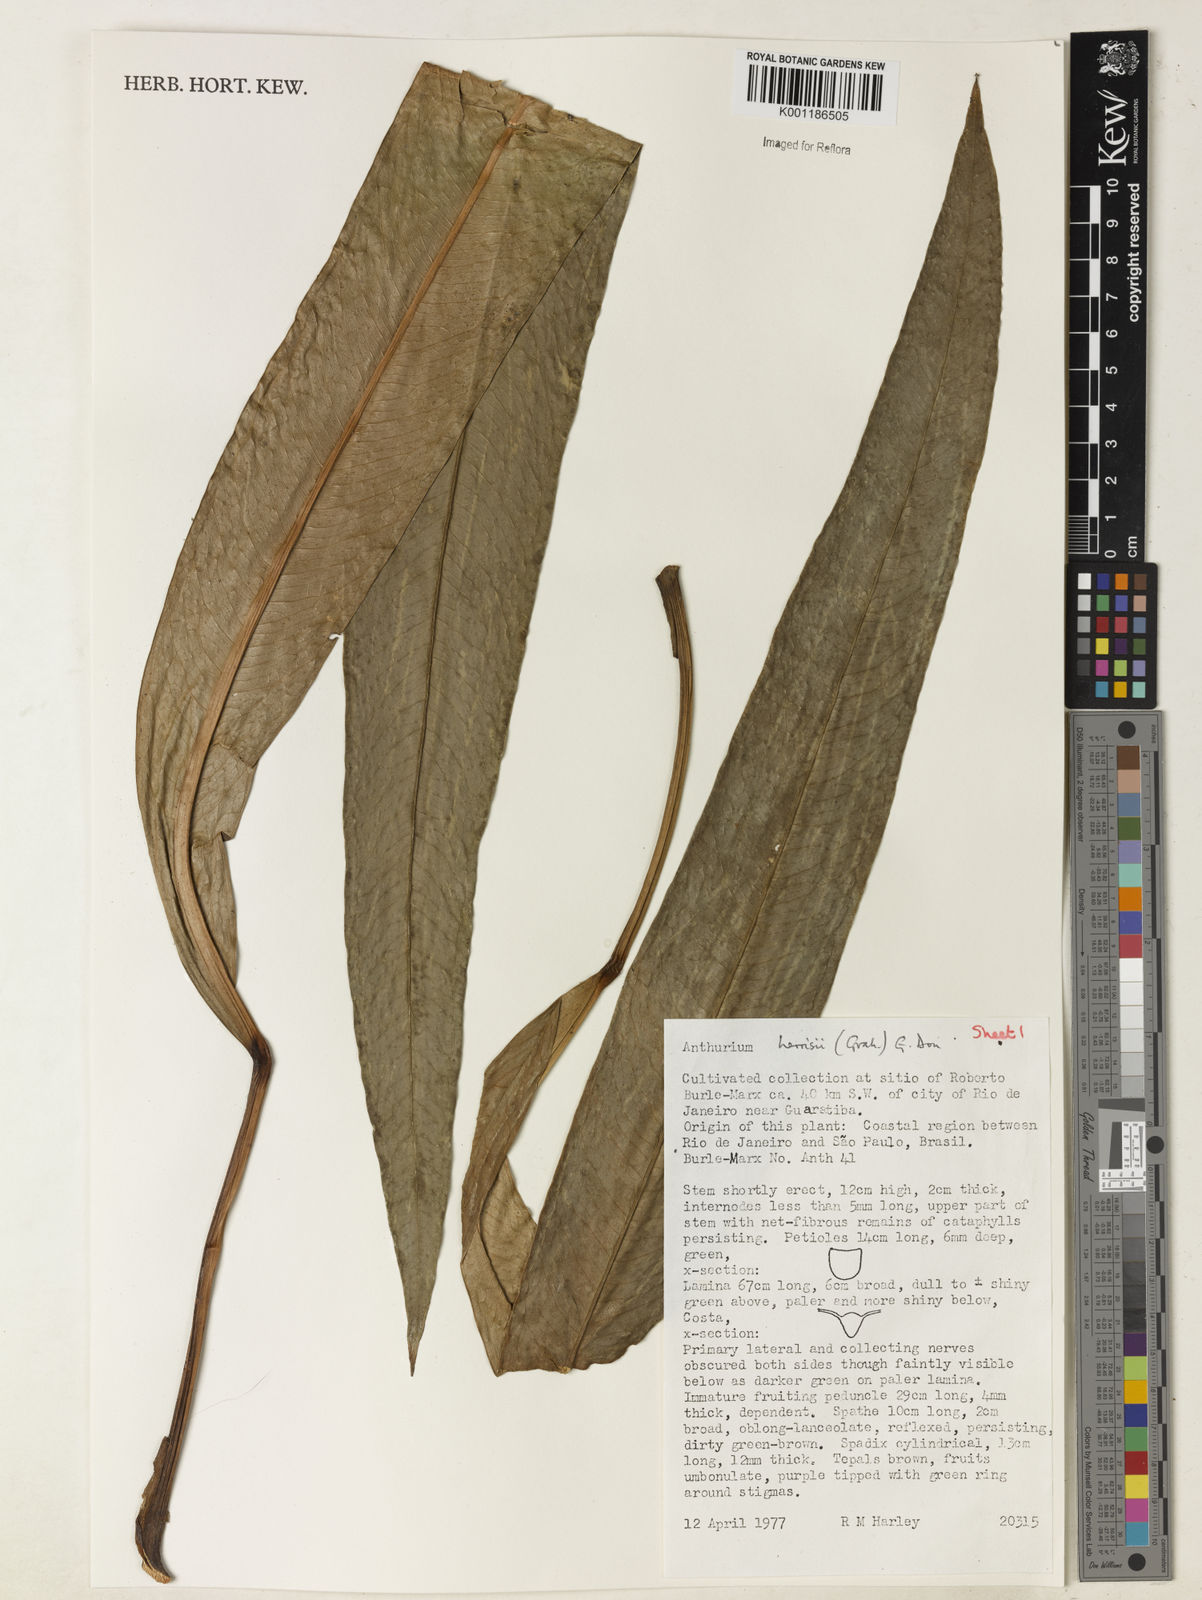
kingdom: Plantae
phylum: Tracheophyta
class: Liliopsida
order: Alismatales
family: Araceae
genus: Anthurium
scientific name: Anthurium harrisii
